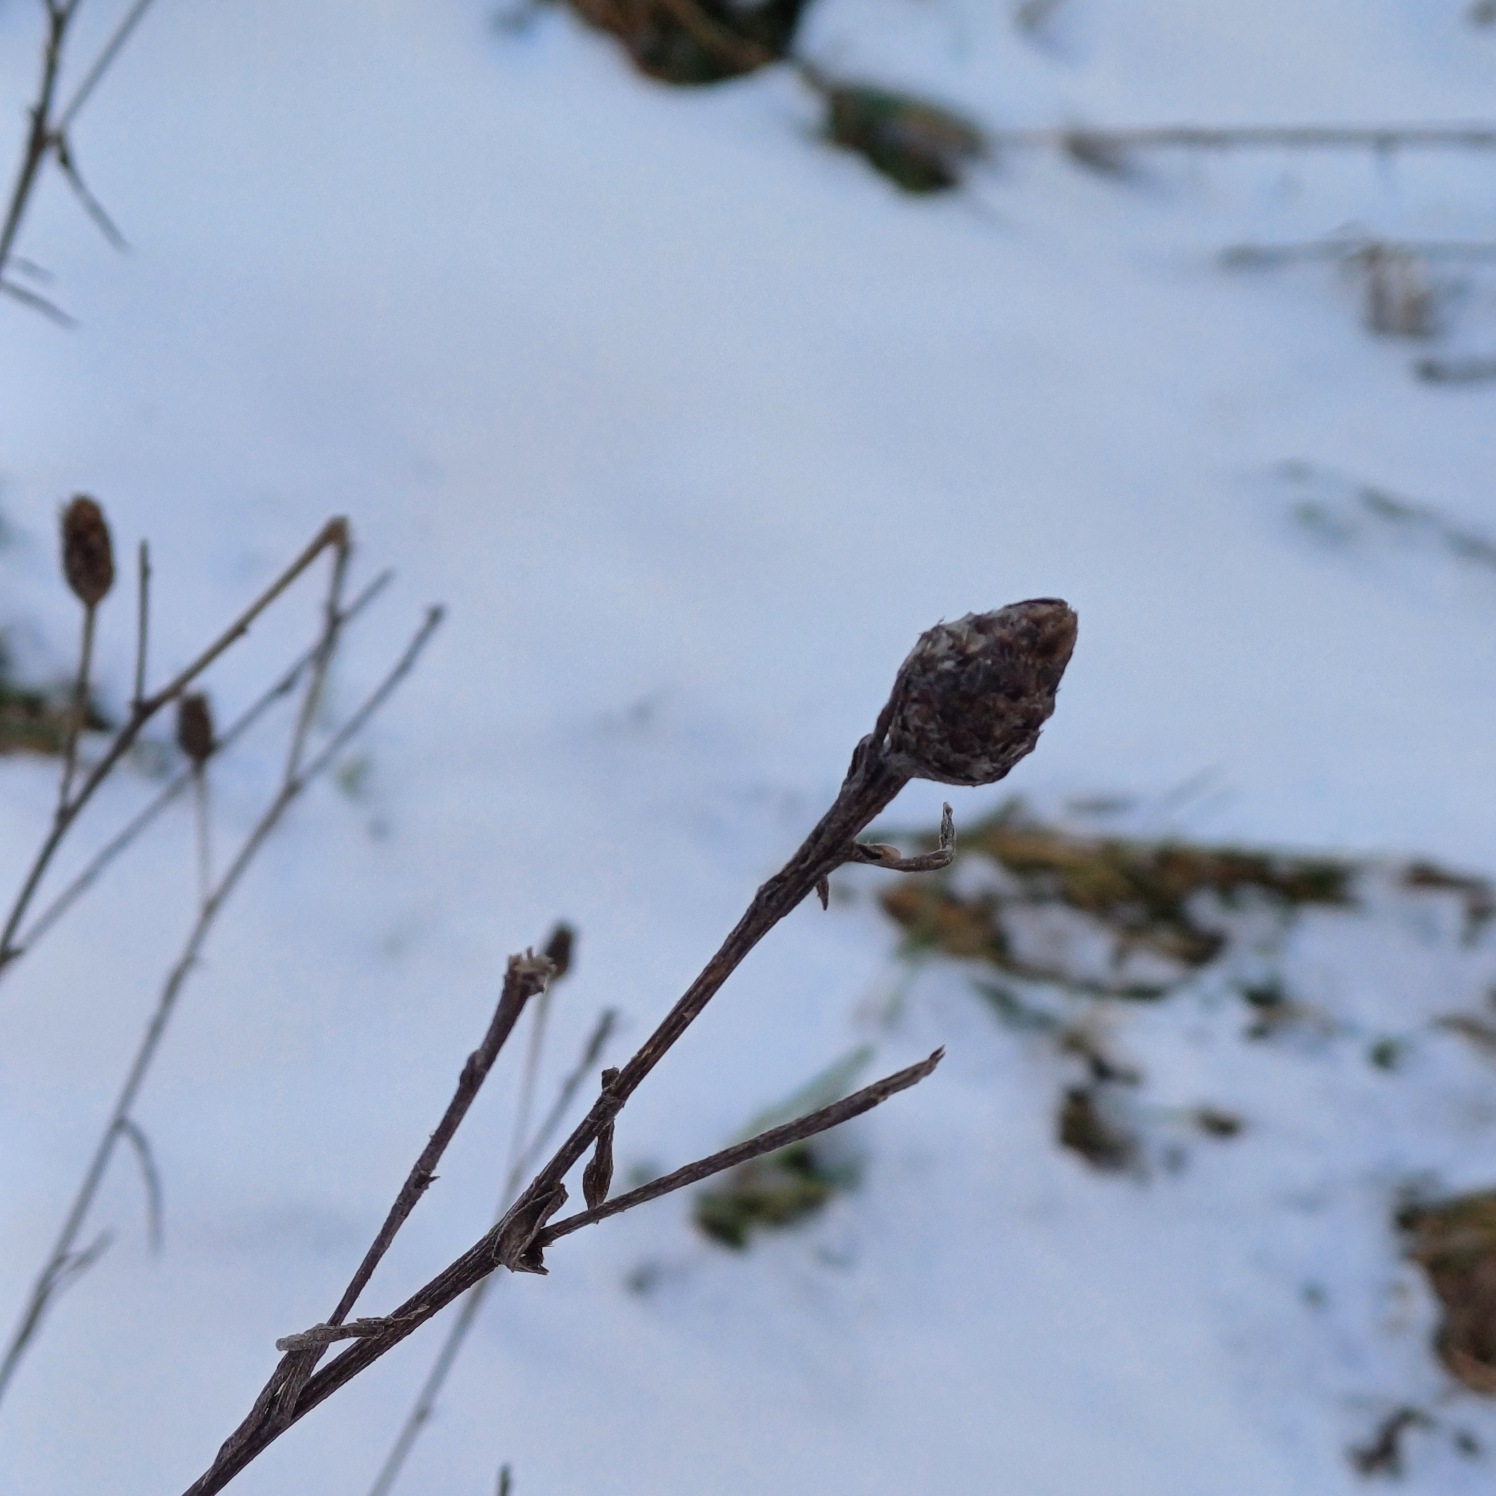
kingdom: Plantae
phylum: Tracheophyta
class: Magnoliopsida
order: Asterales
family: Asteraceae
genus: Centaurea
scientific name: Centaurea jacea
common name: Almindelig knopurt
